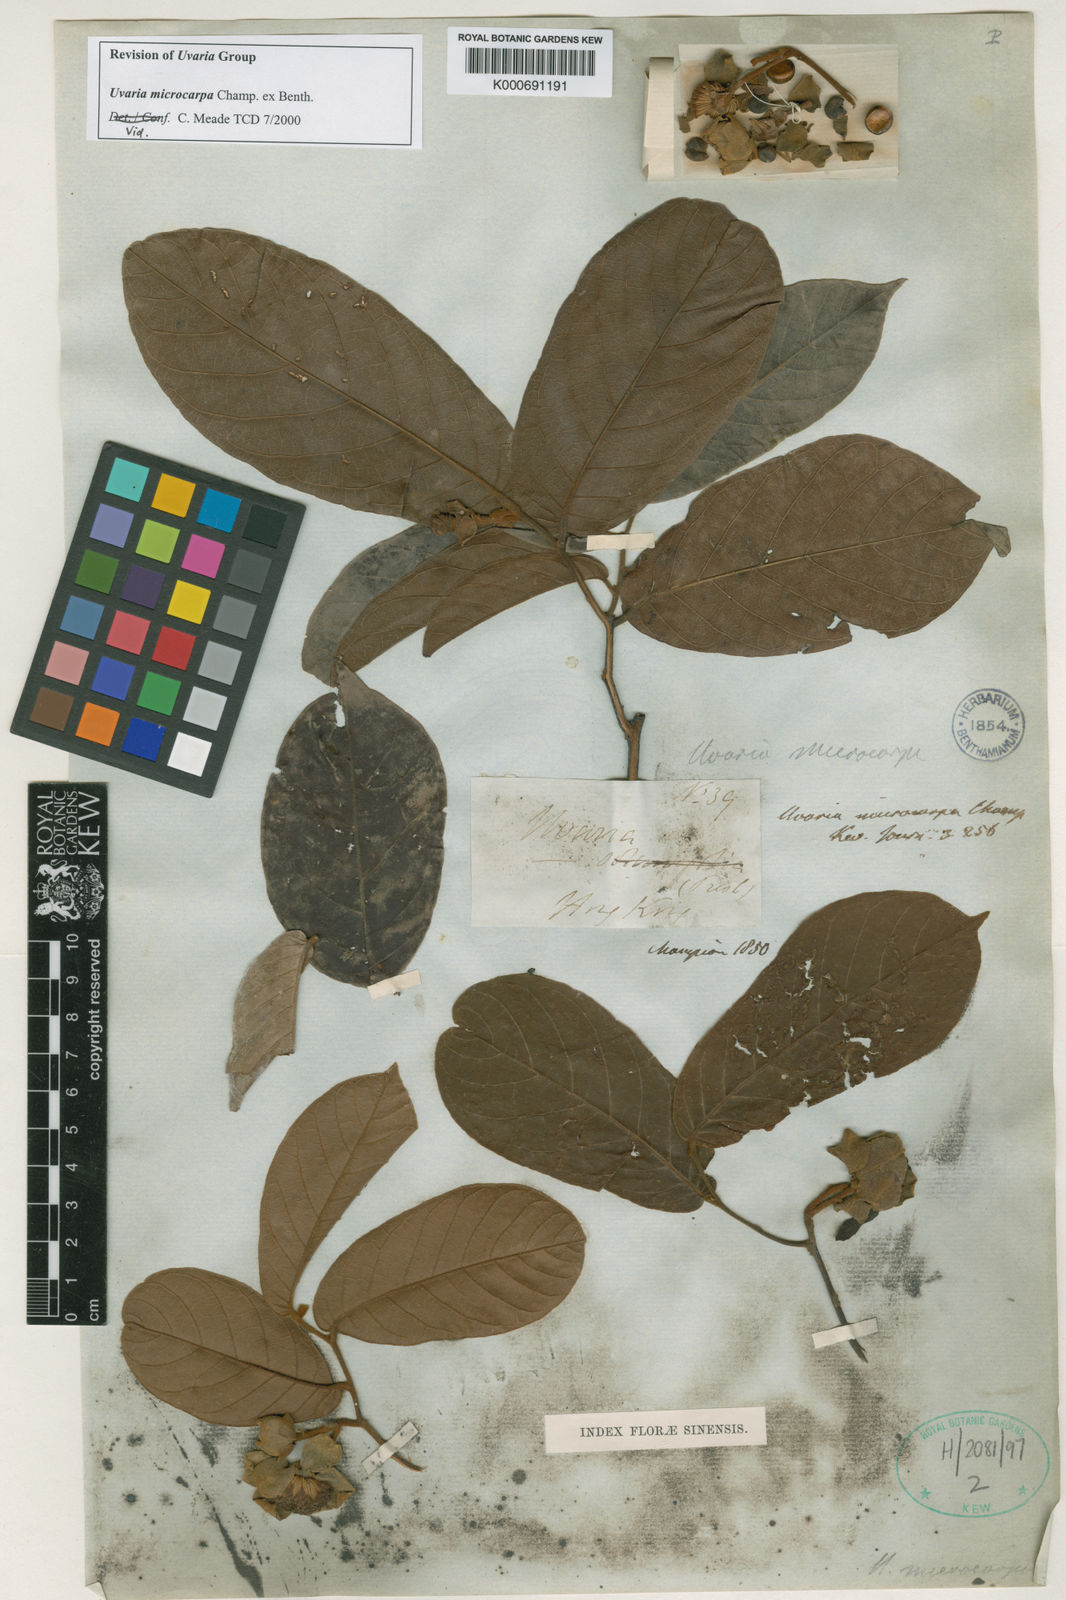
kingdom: Plantae
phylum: Tracheophyta
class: Magnoliopsida
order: Magnoliales
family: Annonaceae
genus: Uvaria
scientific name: Uvaria microcarpa
